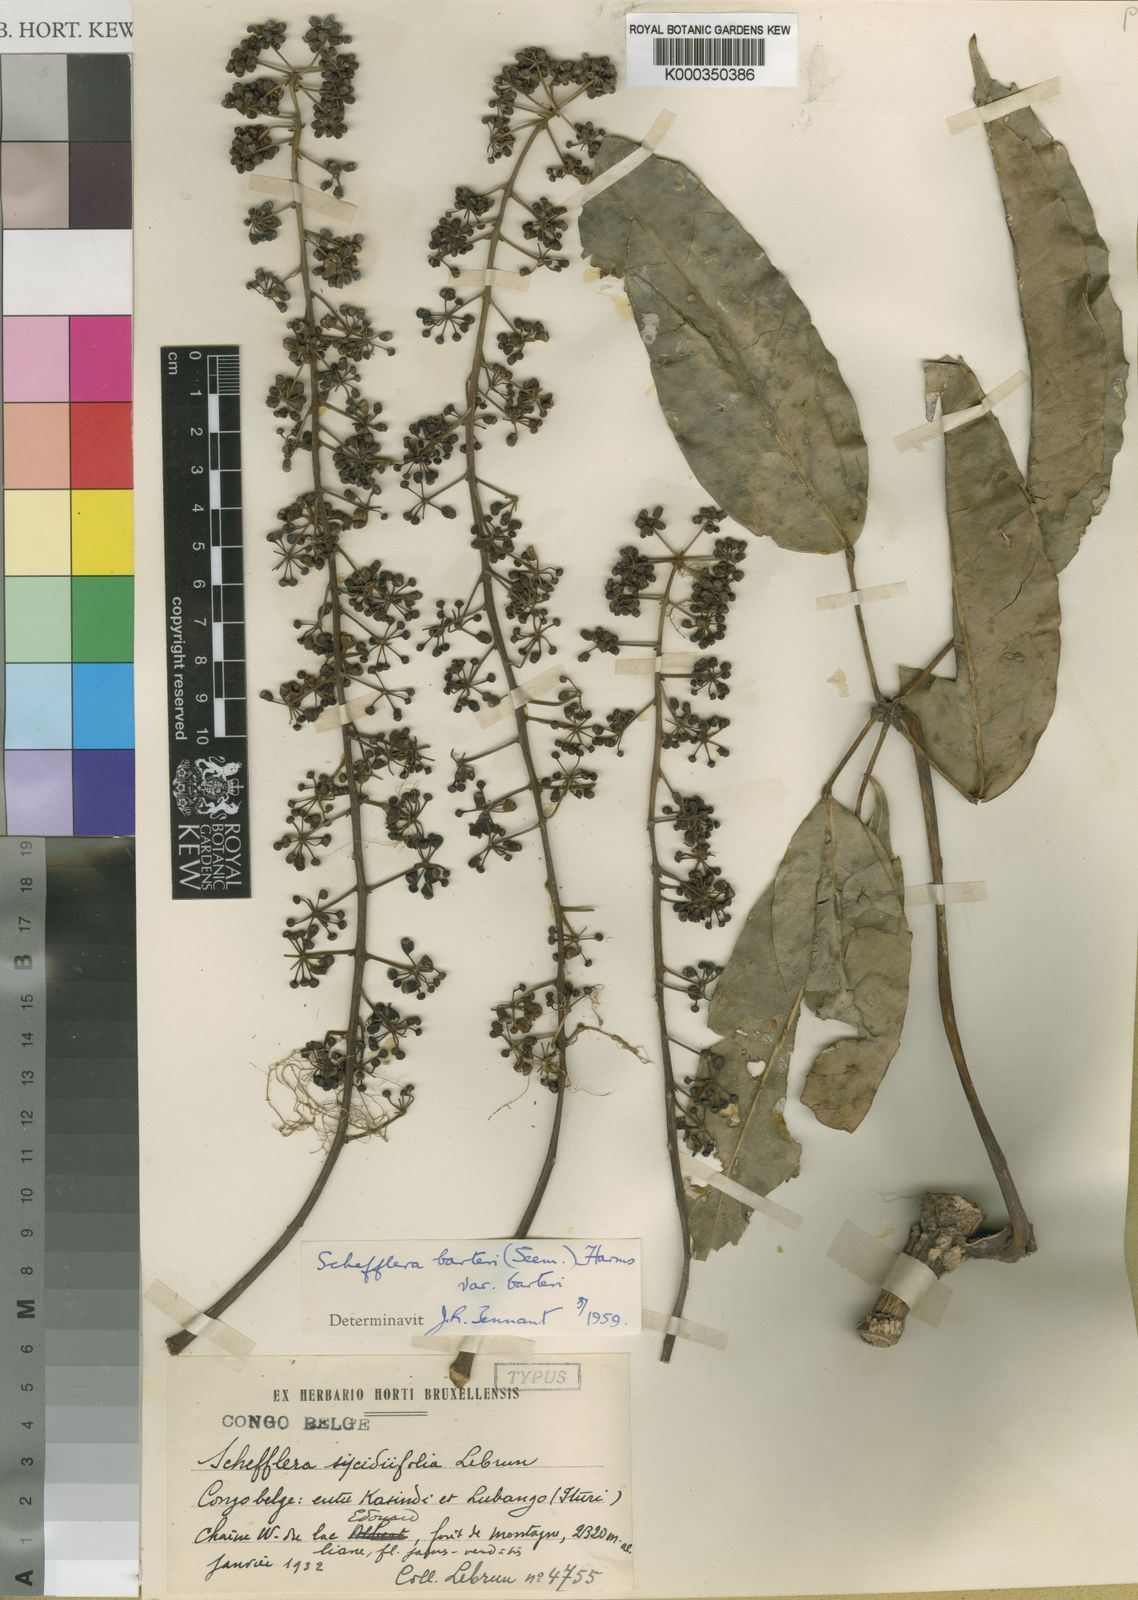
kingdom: Plantae
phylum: Tracheophyta
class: Magnoliopsida
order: Apiales
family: Araliaceae
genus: Astropanax
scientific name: Astropanax goetzenii
